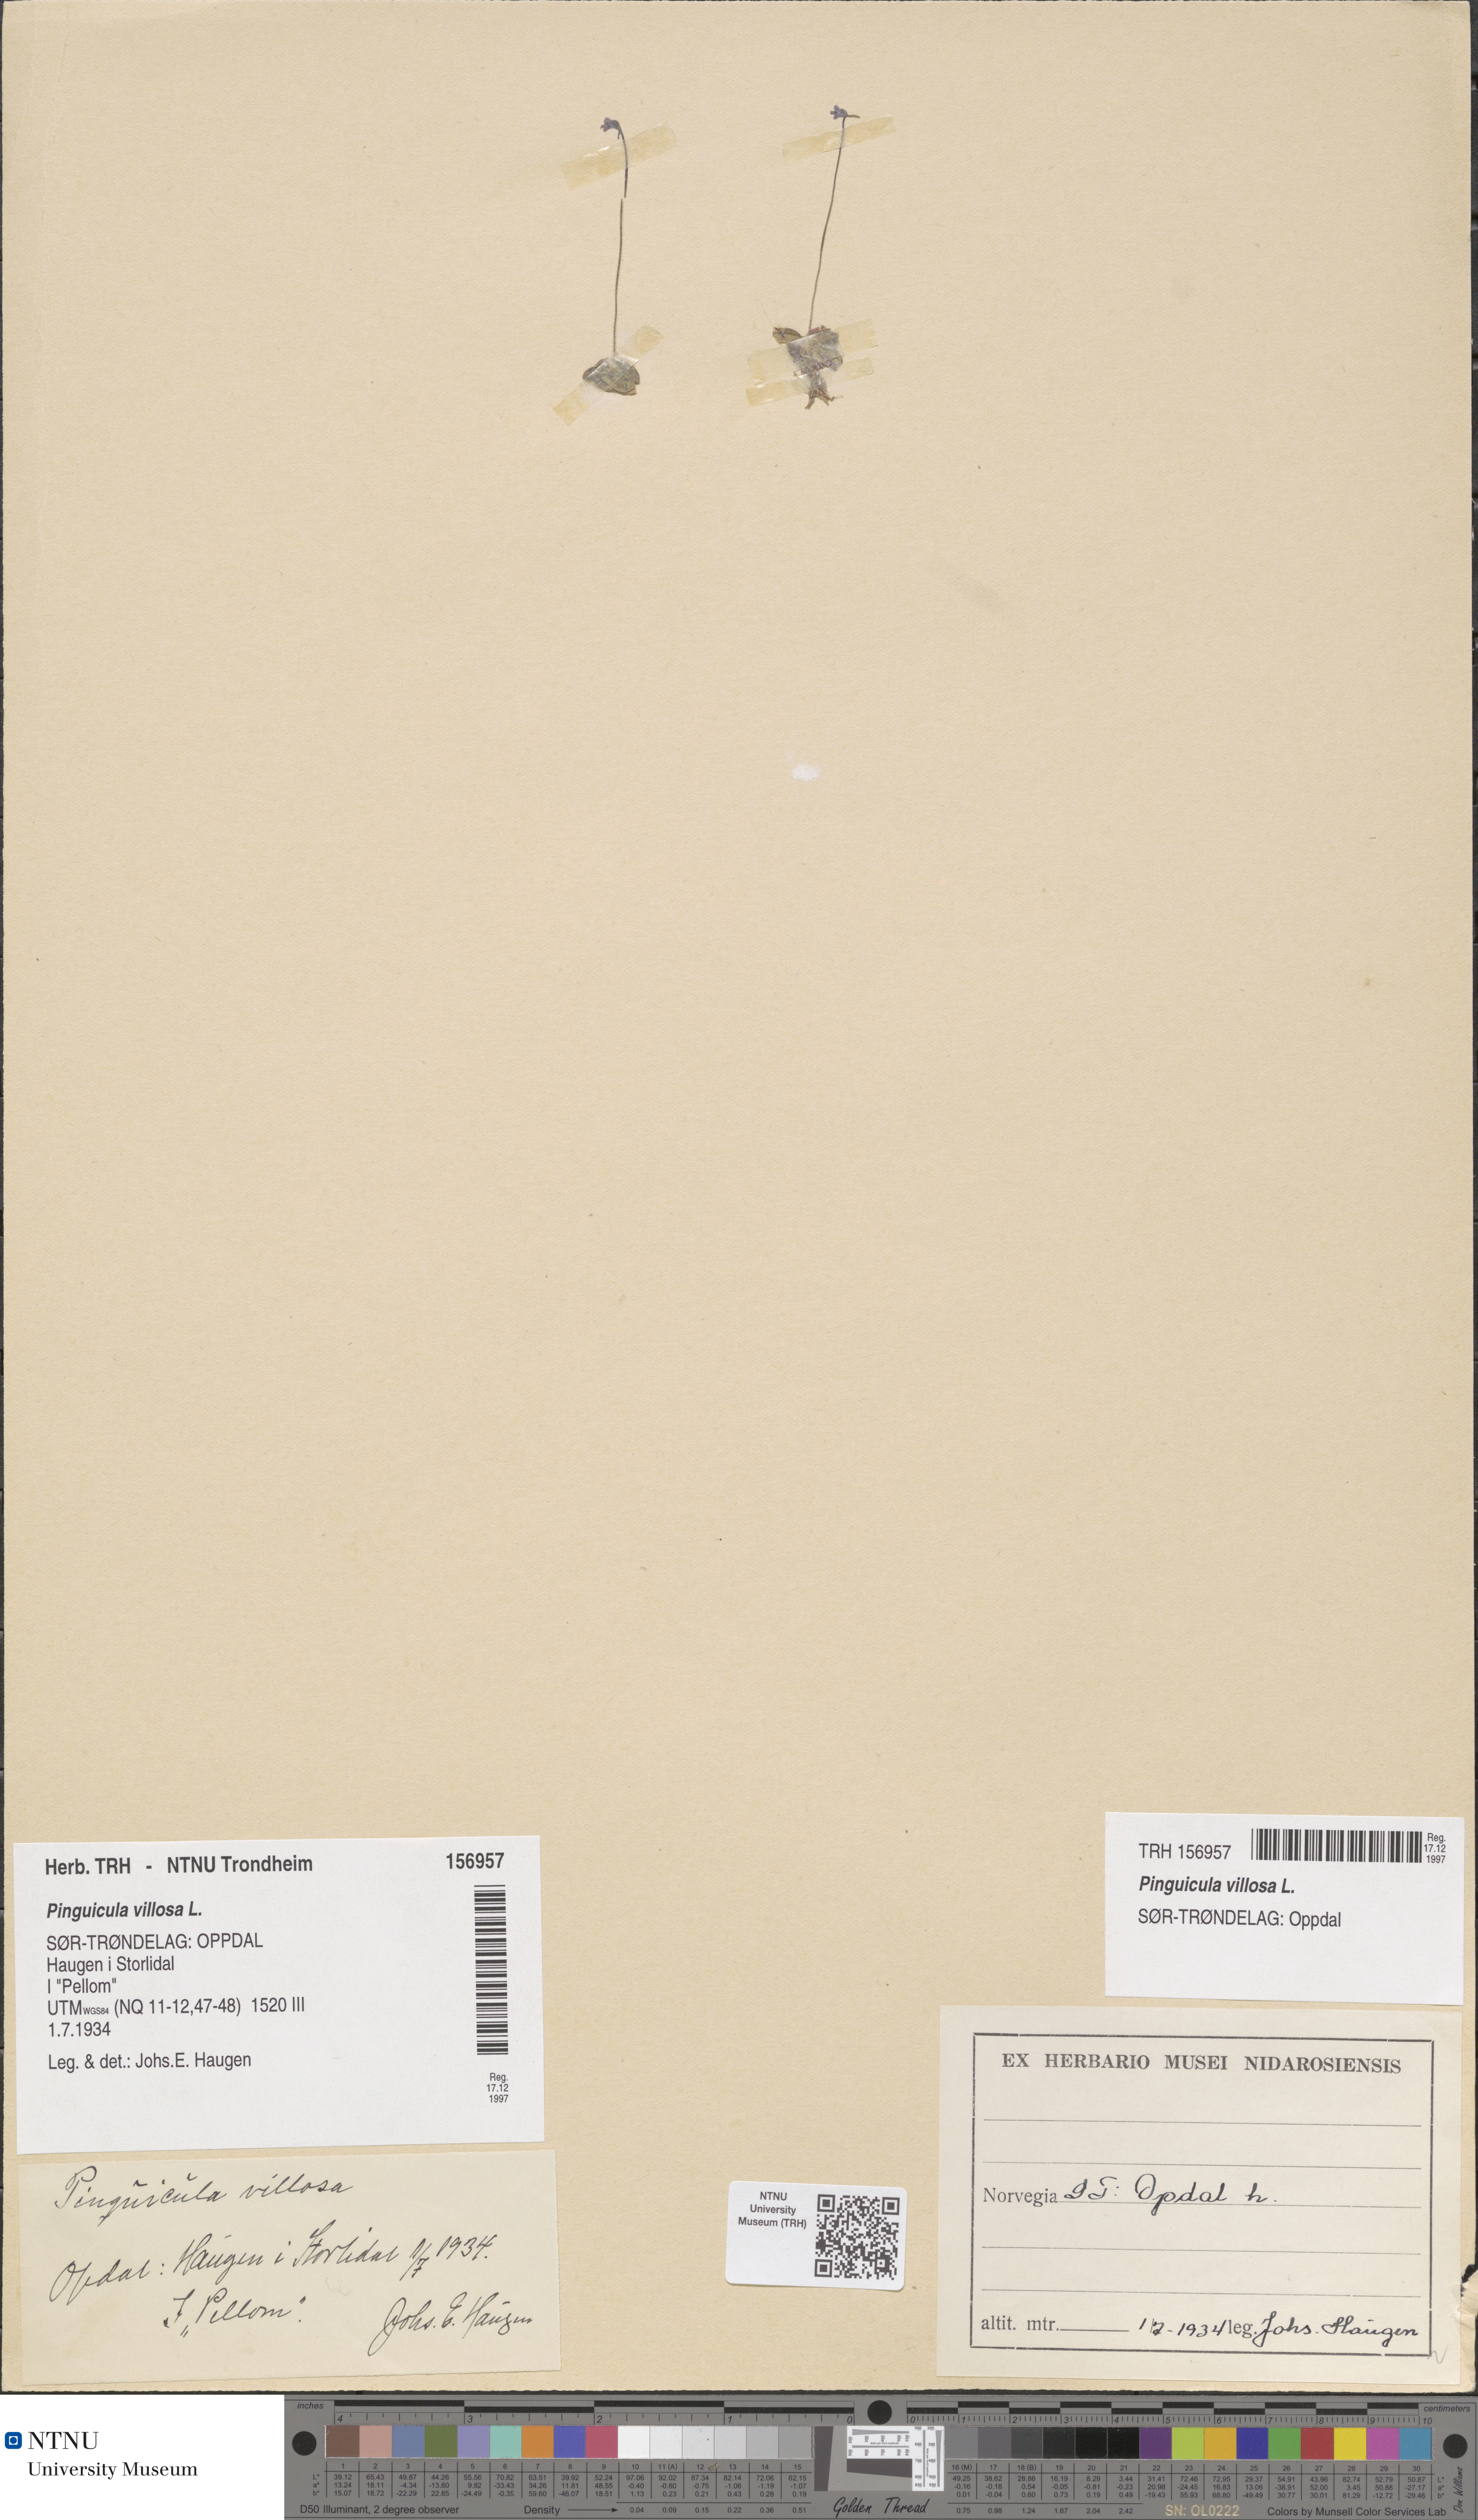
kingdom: Plantae
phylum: Tracheophyta
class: Magnoliopsida
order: Lamiales
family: Lentibulariaceae
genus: Pinguicula
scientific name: Pinguicula villosa
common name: Hairy butterwort
